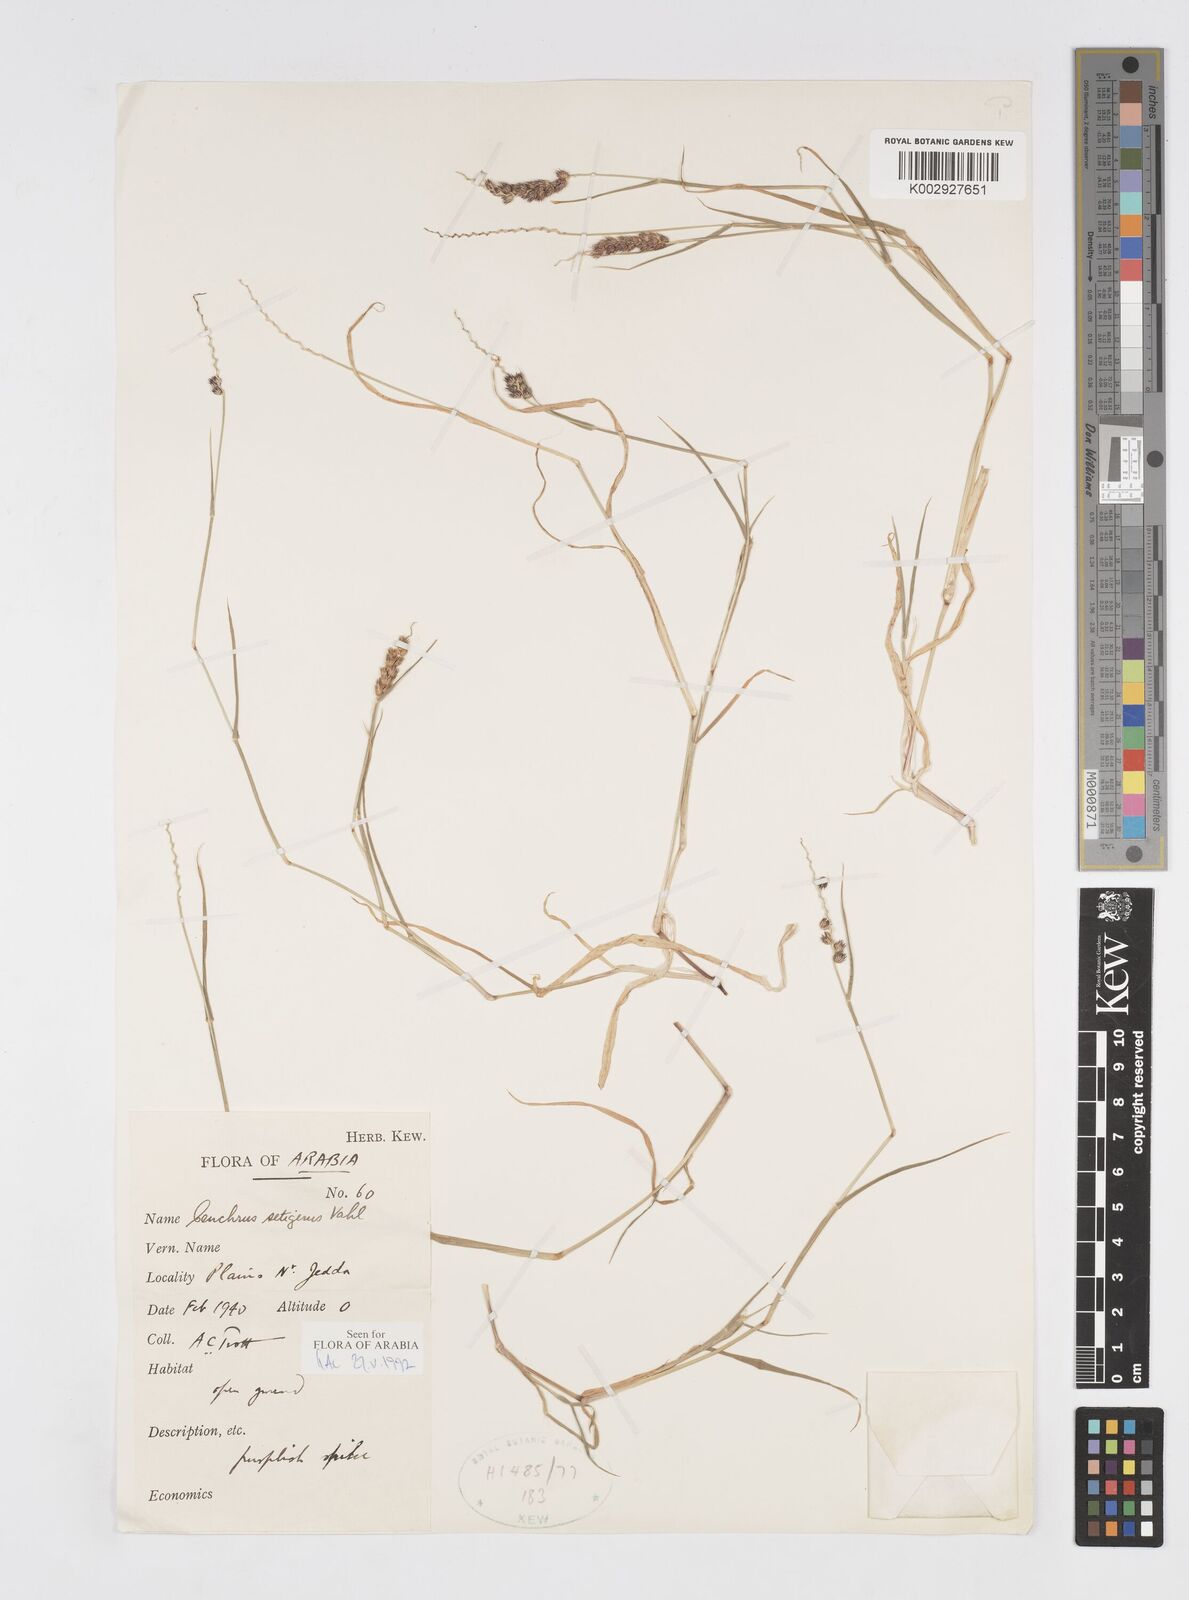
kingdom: Plantae
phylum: Tracheophyta
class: Liliopsida
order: Poales
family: Poaceae
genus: Cenchrus
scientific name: Cenchrus setigerus
